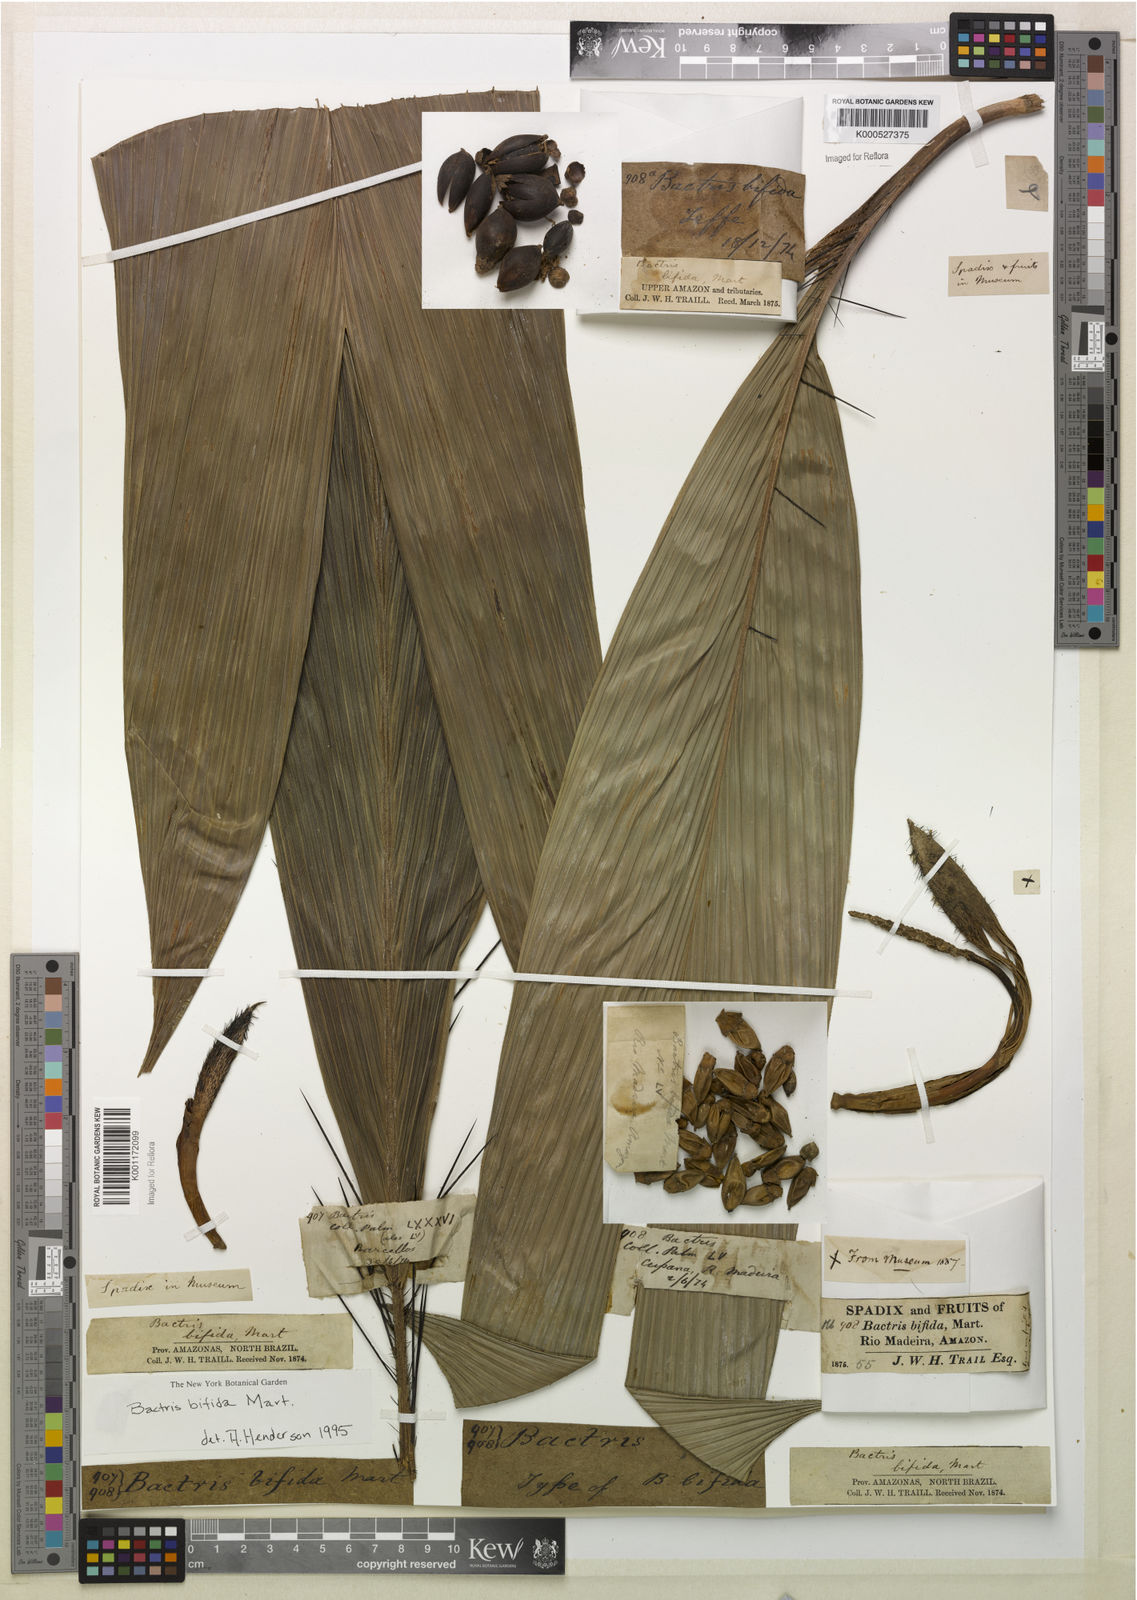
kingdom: Plantae
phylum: Tracheophyta
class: Liliopsida
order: Arecales
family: Arecaceae
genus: Bactris
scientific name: Bactris bifida
